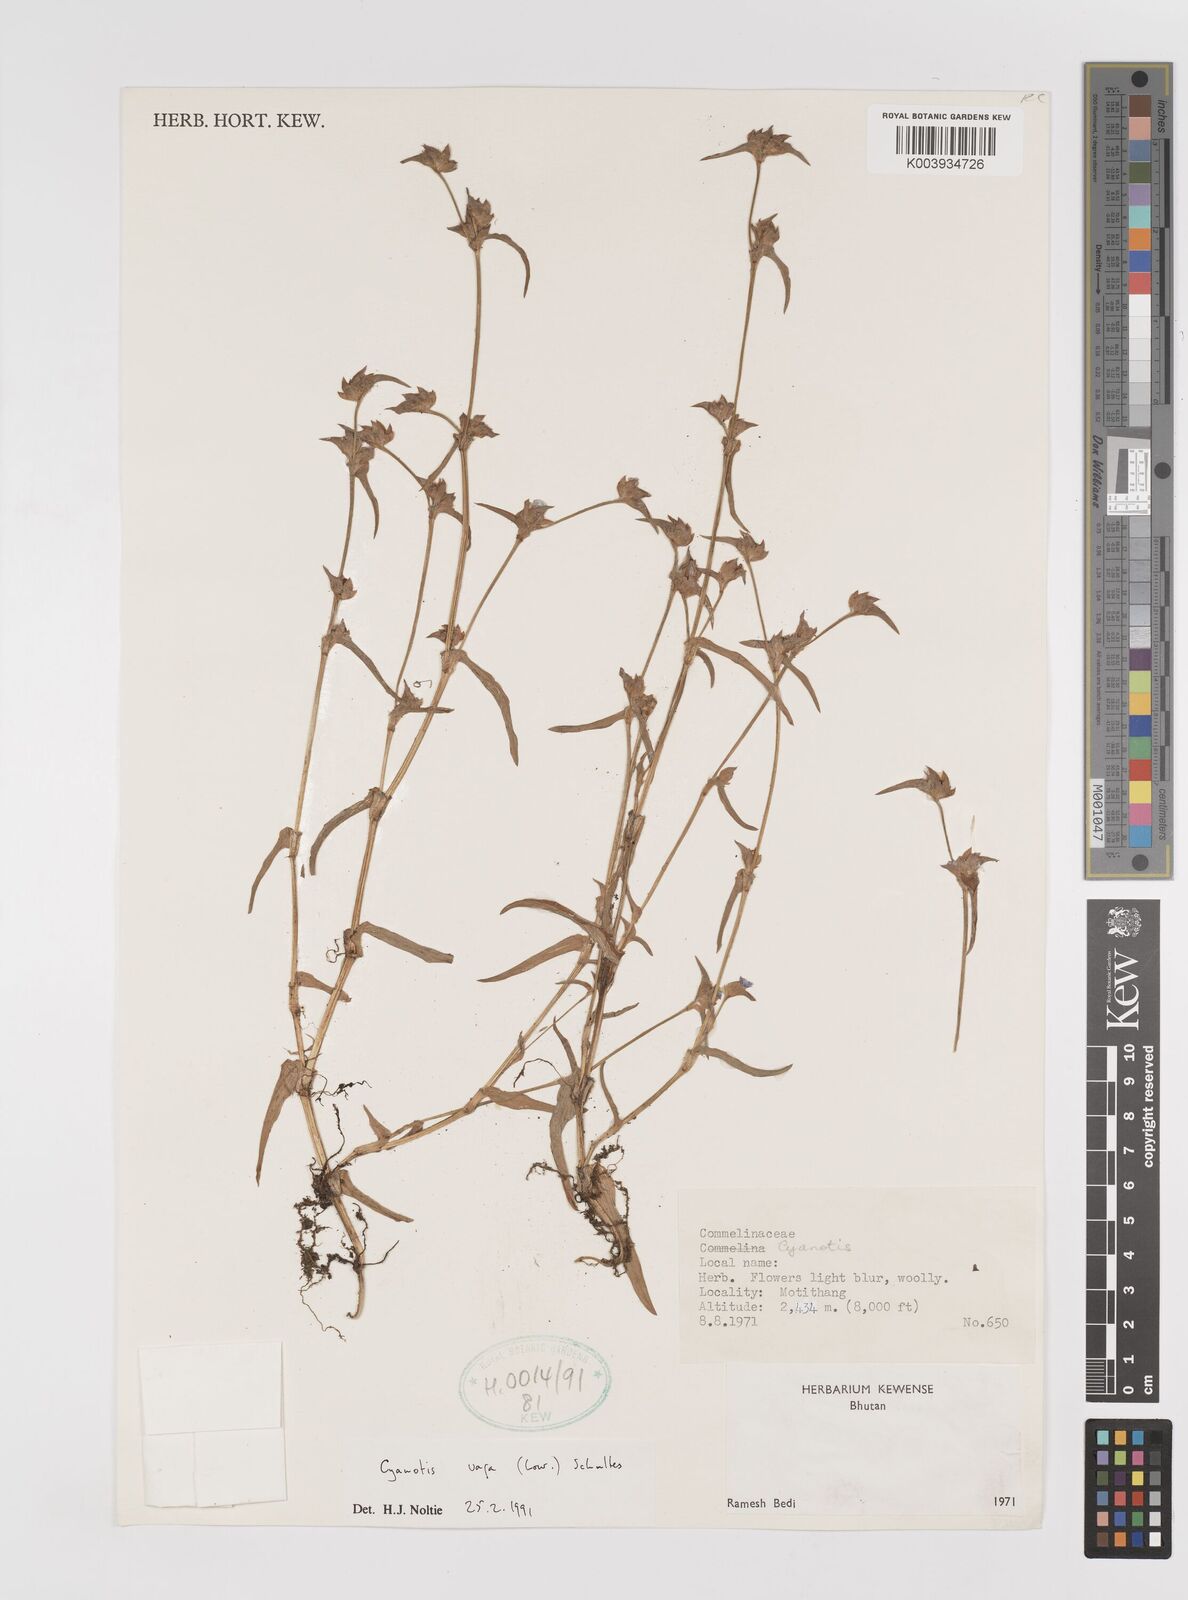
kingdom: Plantae
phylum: Tracheophyta
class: Liliopsida
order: Commelinales
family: Commelinaceae
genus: Cyanotis
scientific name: Cyanotis vaga
